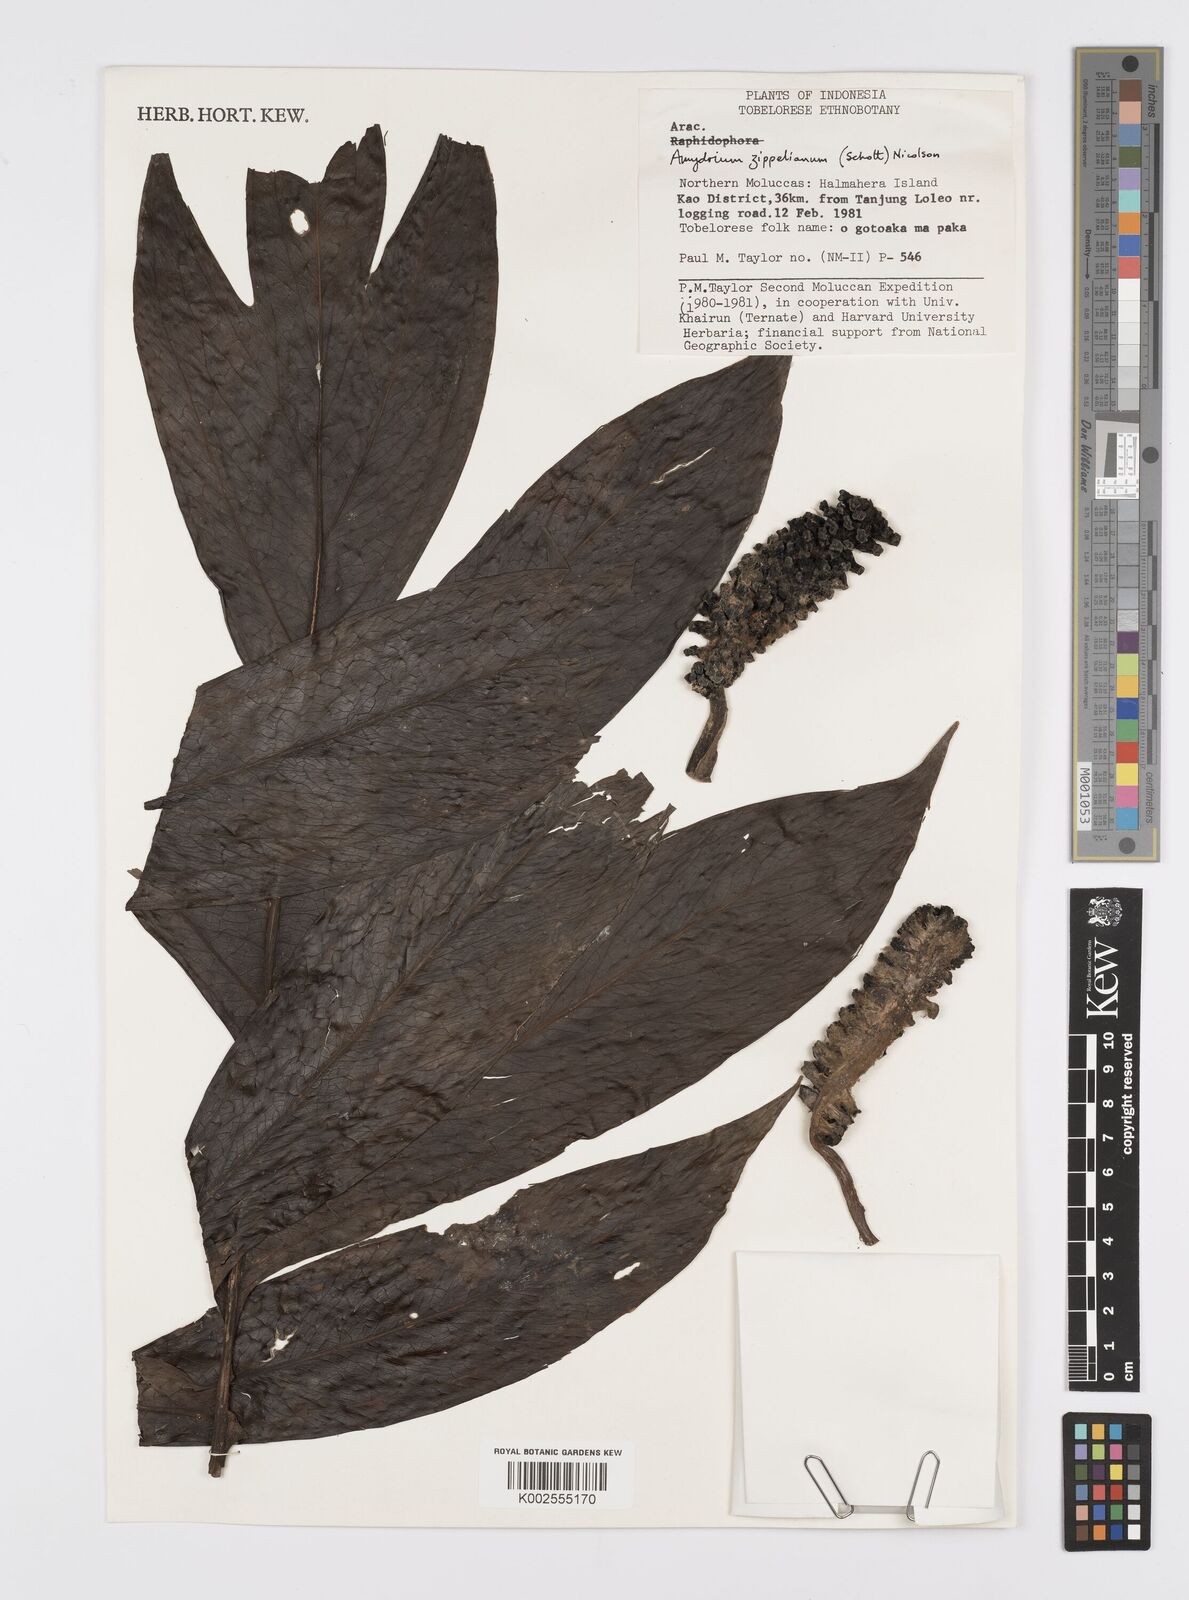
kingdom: Plantae
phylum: Tracheophyta
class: Liliopsida
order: Alismatales
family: Araceae
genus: Amydrium
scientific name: Amydrium zippelianum
